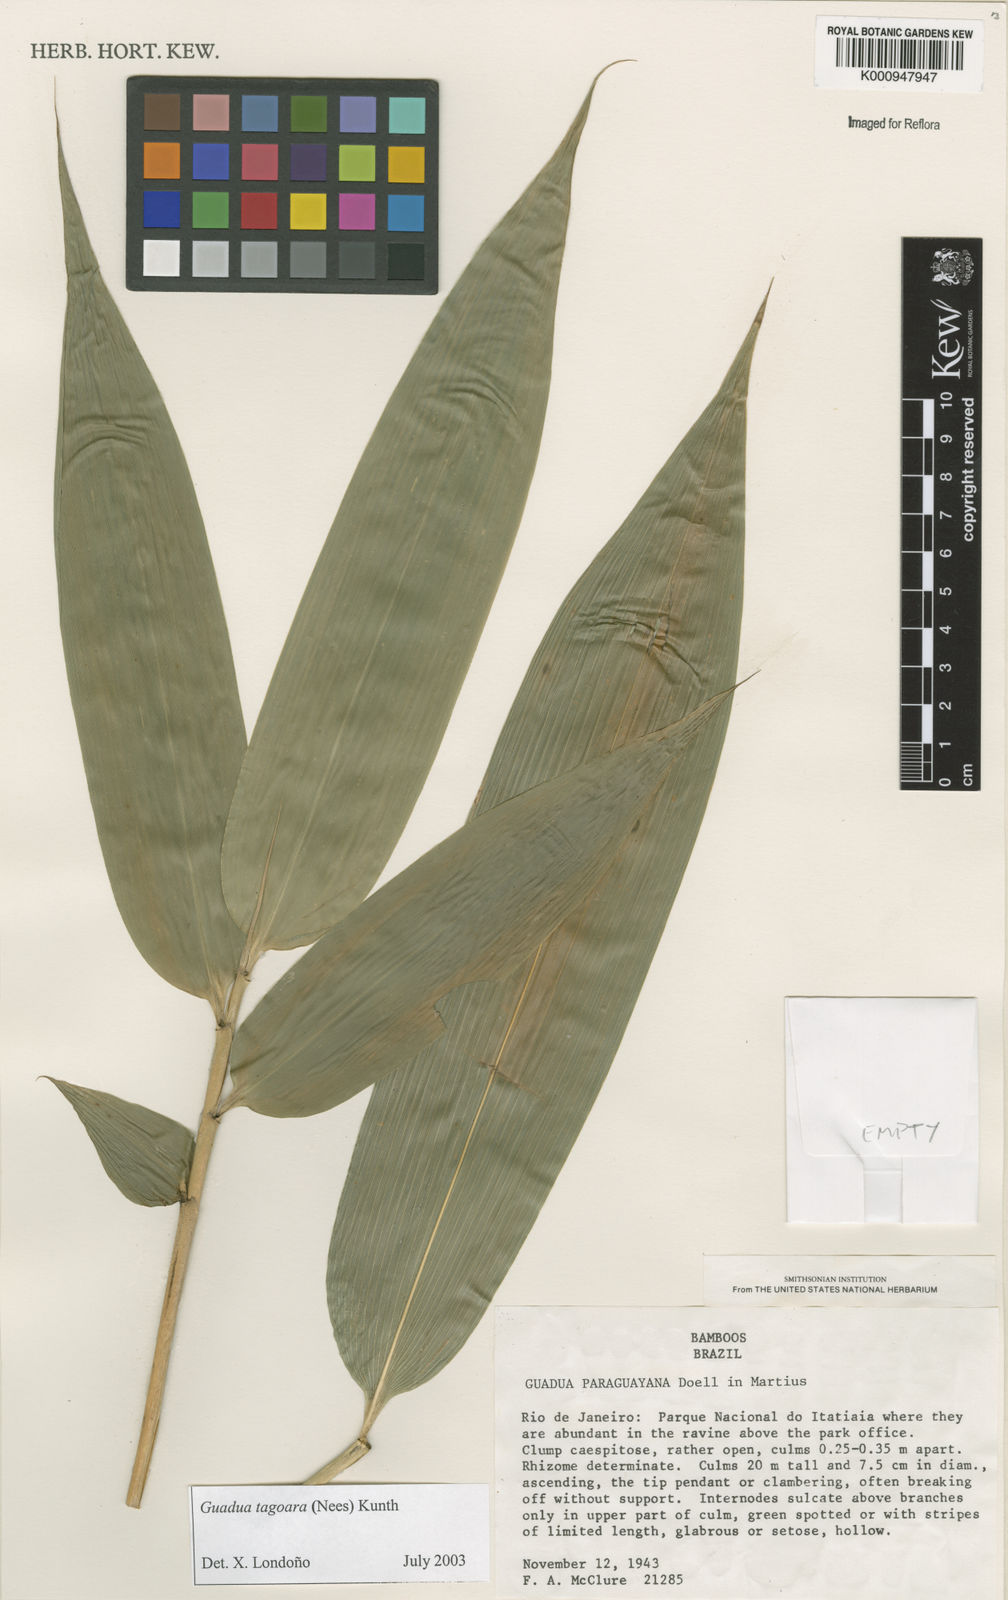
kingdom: Plantae
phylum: Tracheophyta
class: Liliopsida
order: Poales
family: Poaceae
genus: Guadua
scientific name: Guadua tagoara
